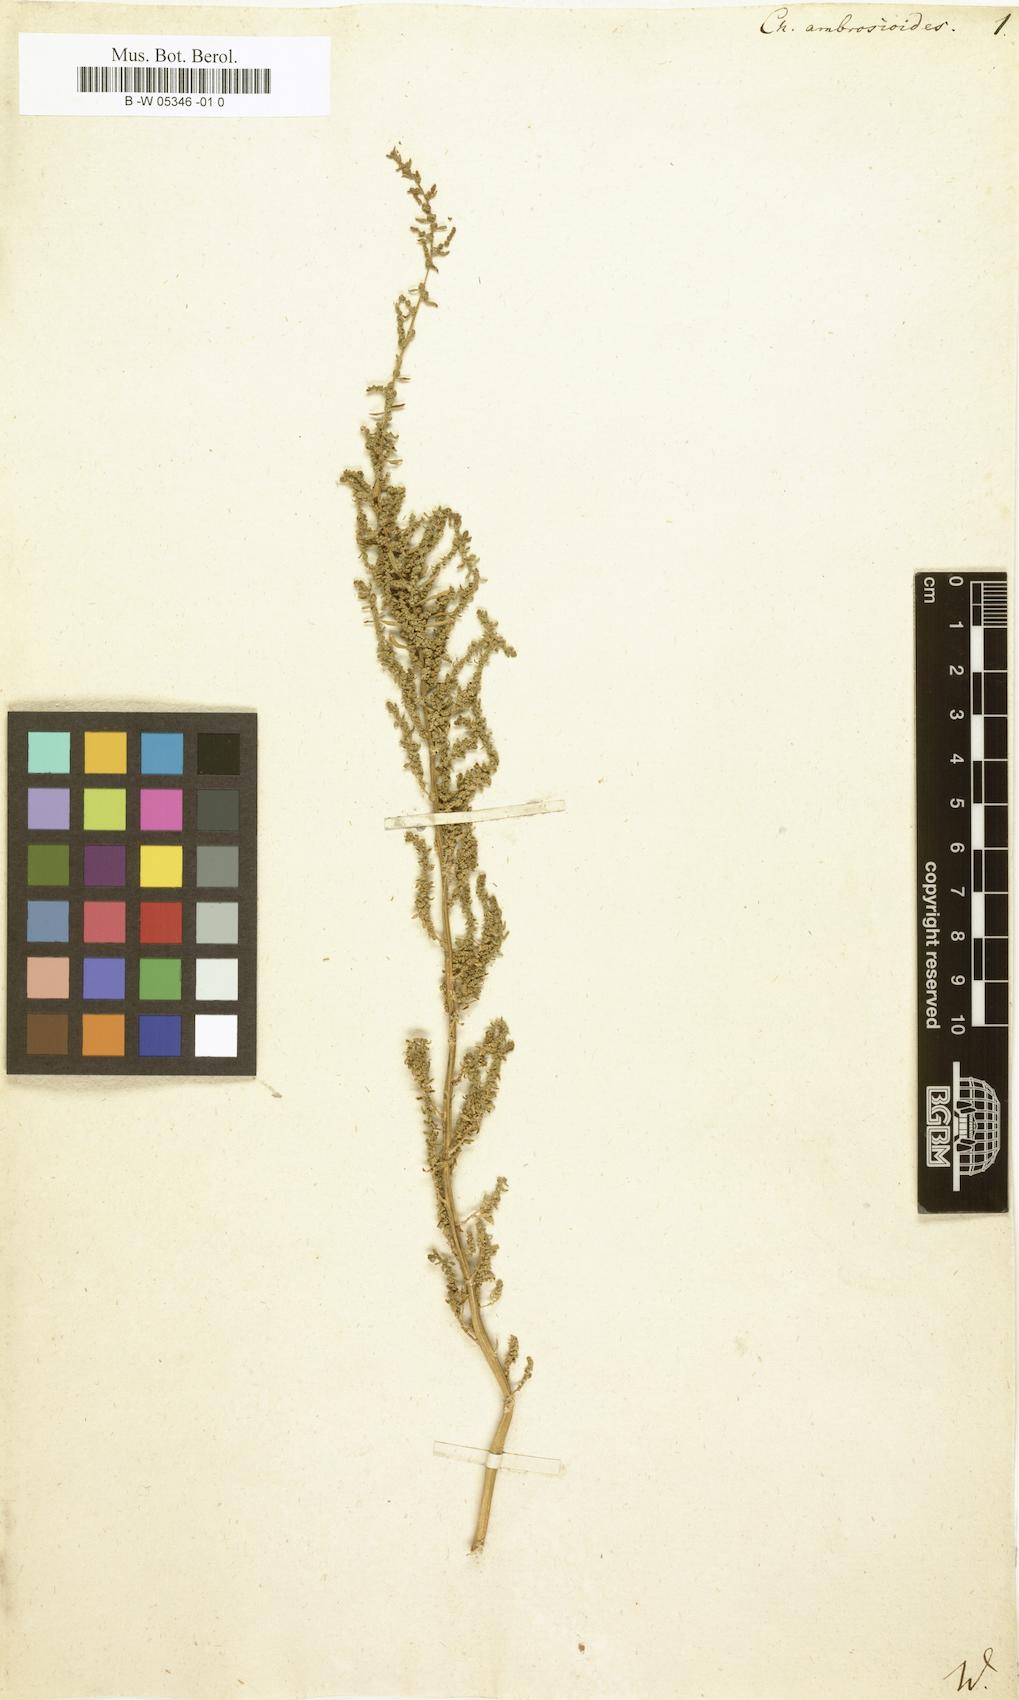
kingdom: Plantae
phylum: Tracheophyta
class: Magnoliopsida
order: Caryophyllales
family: Amaranthaceae
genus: Dysphania
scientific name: Dysphania ambrosioides
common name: Wormseed
